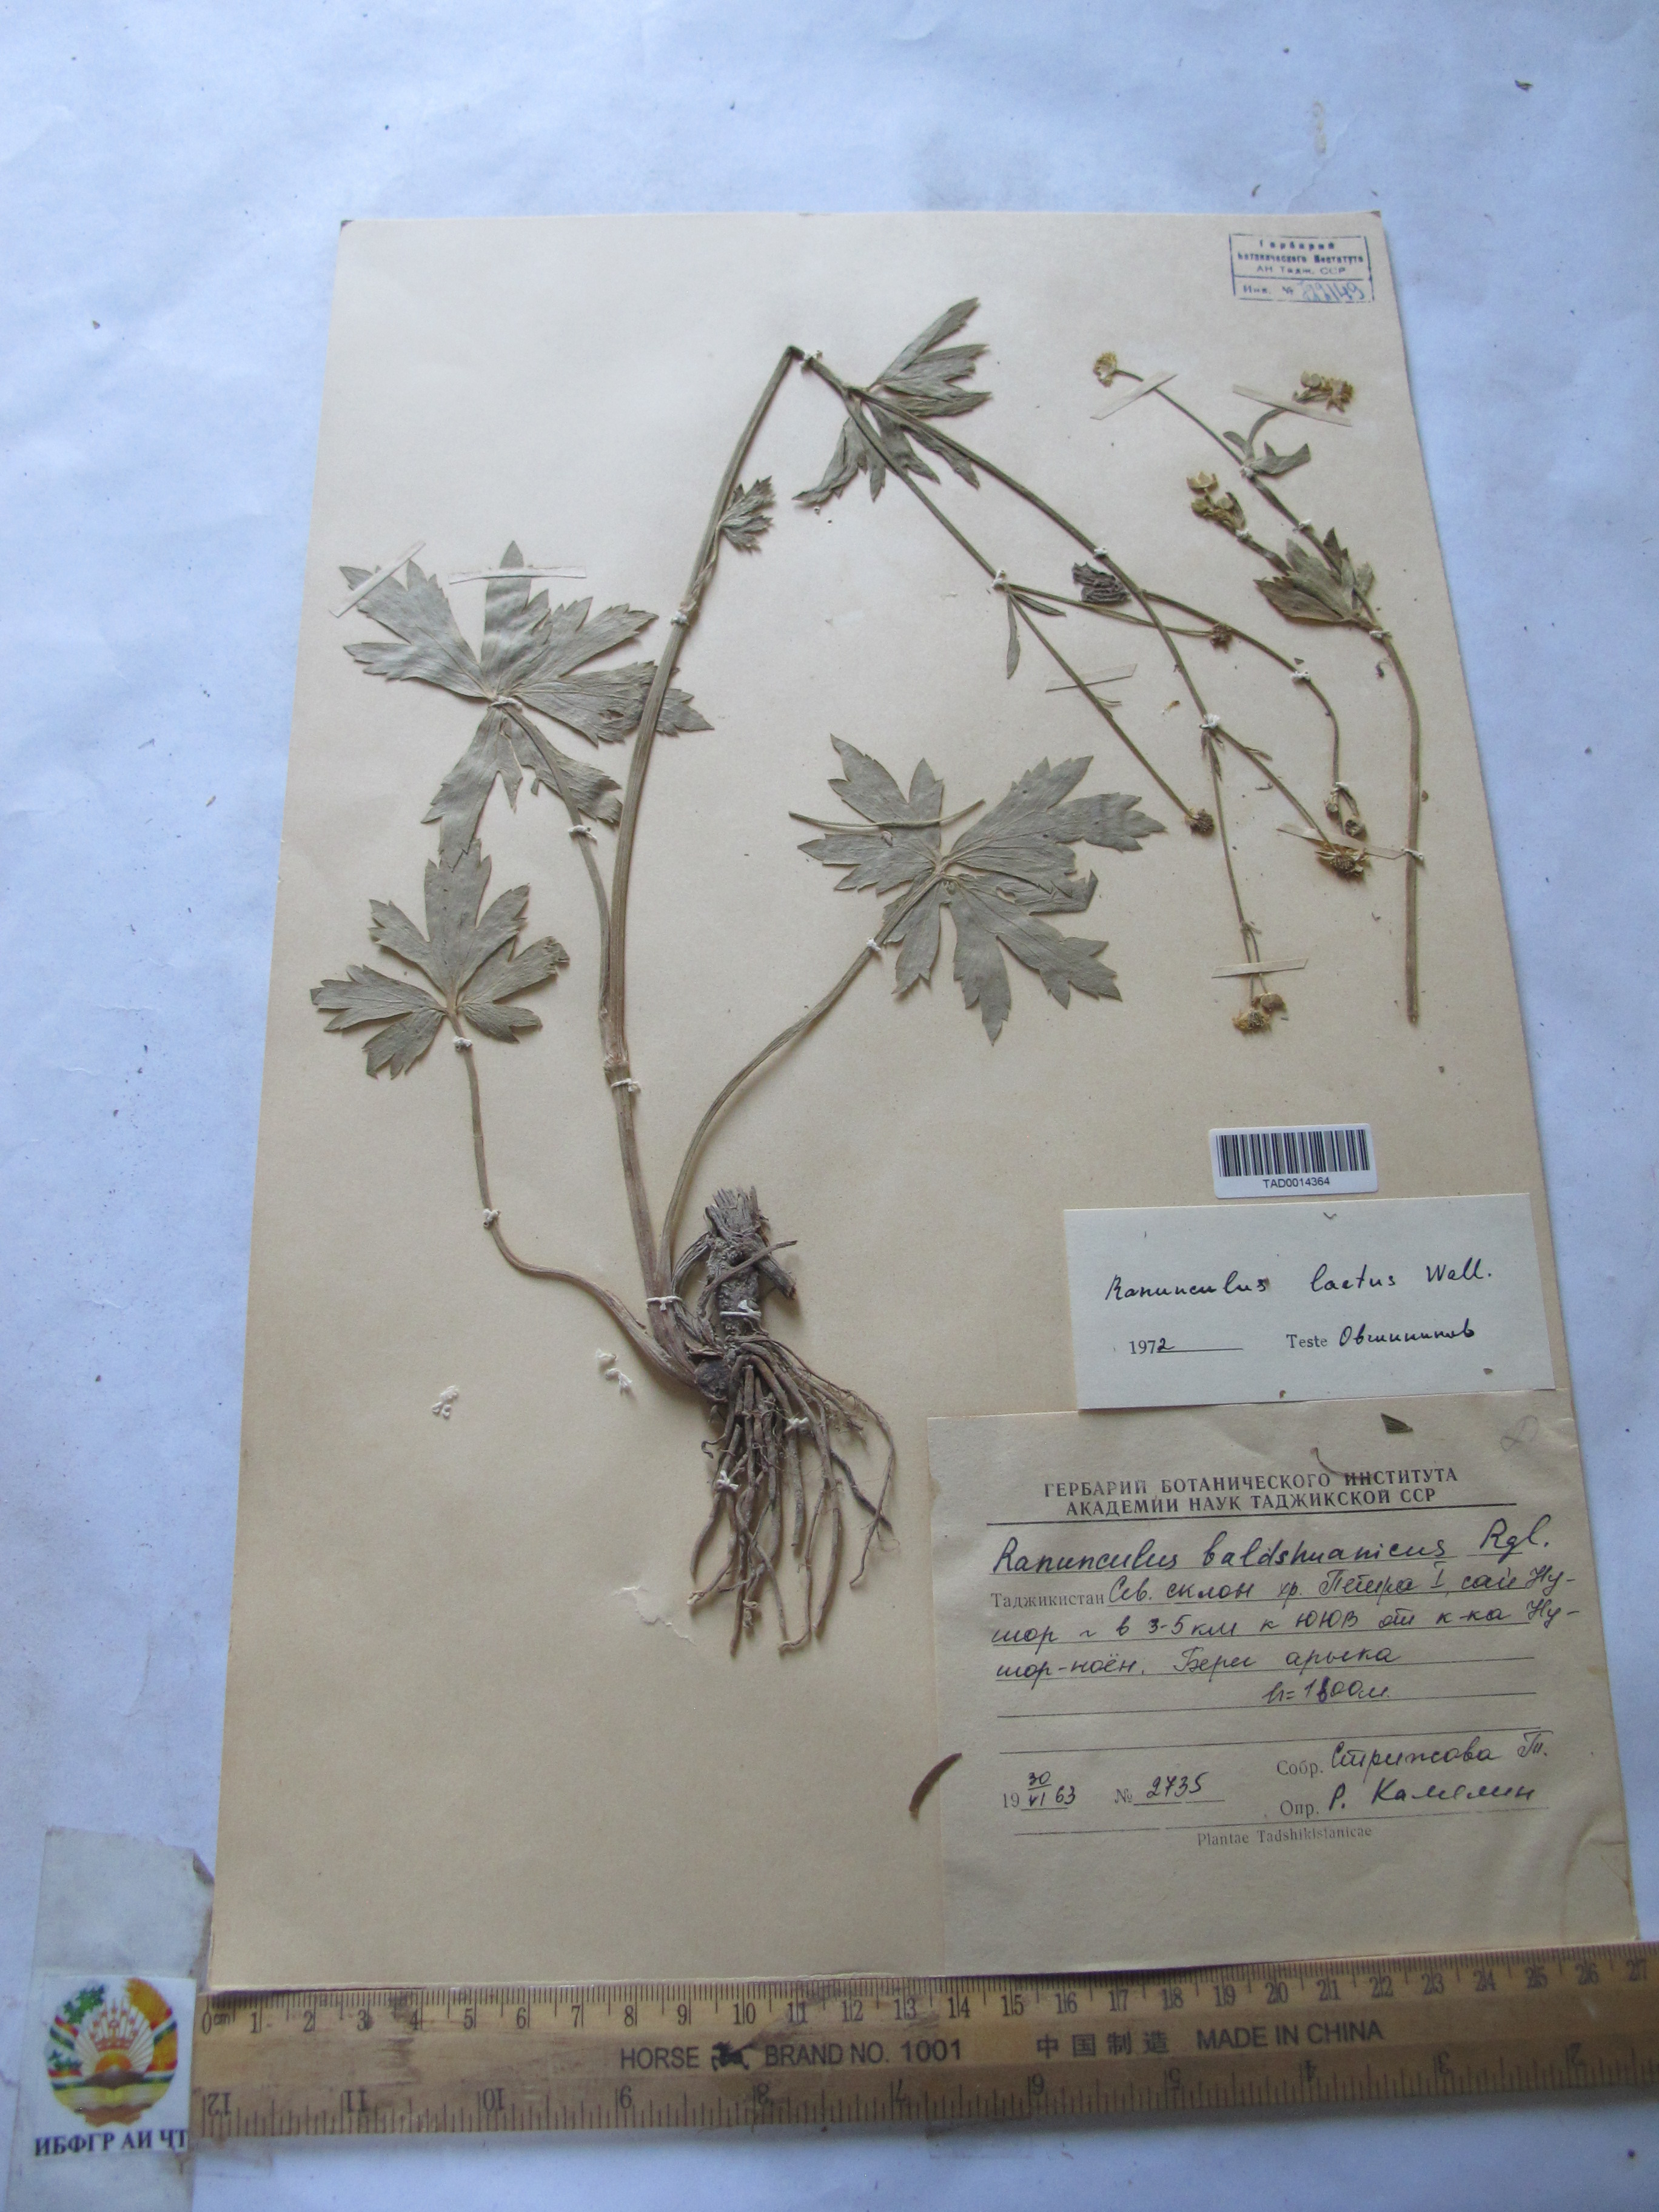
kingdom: Plantae
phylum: Tracheophyta
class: Magnoliopsida
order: Ranunculales
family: Ranunculaceae
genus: Ranunculus
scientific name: Ranunculus distans
